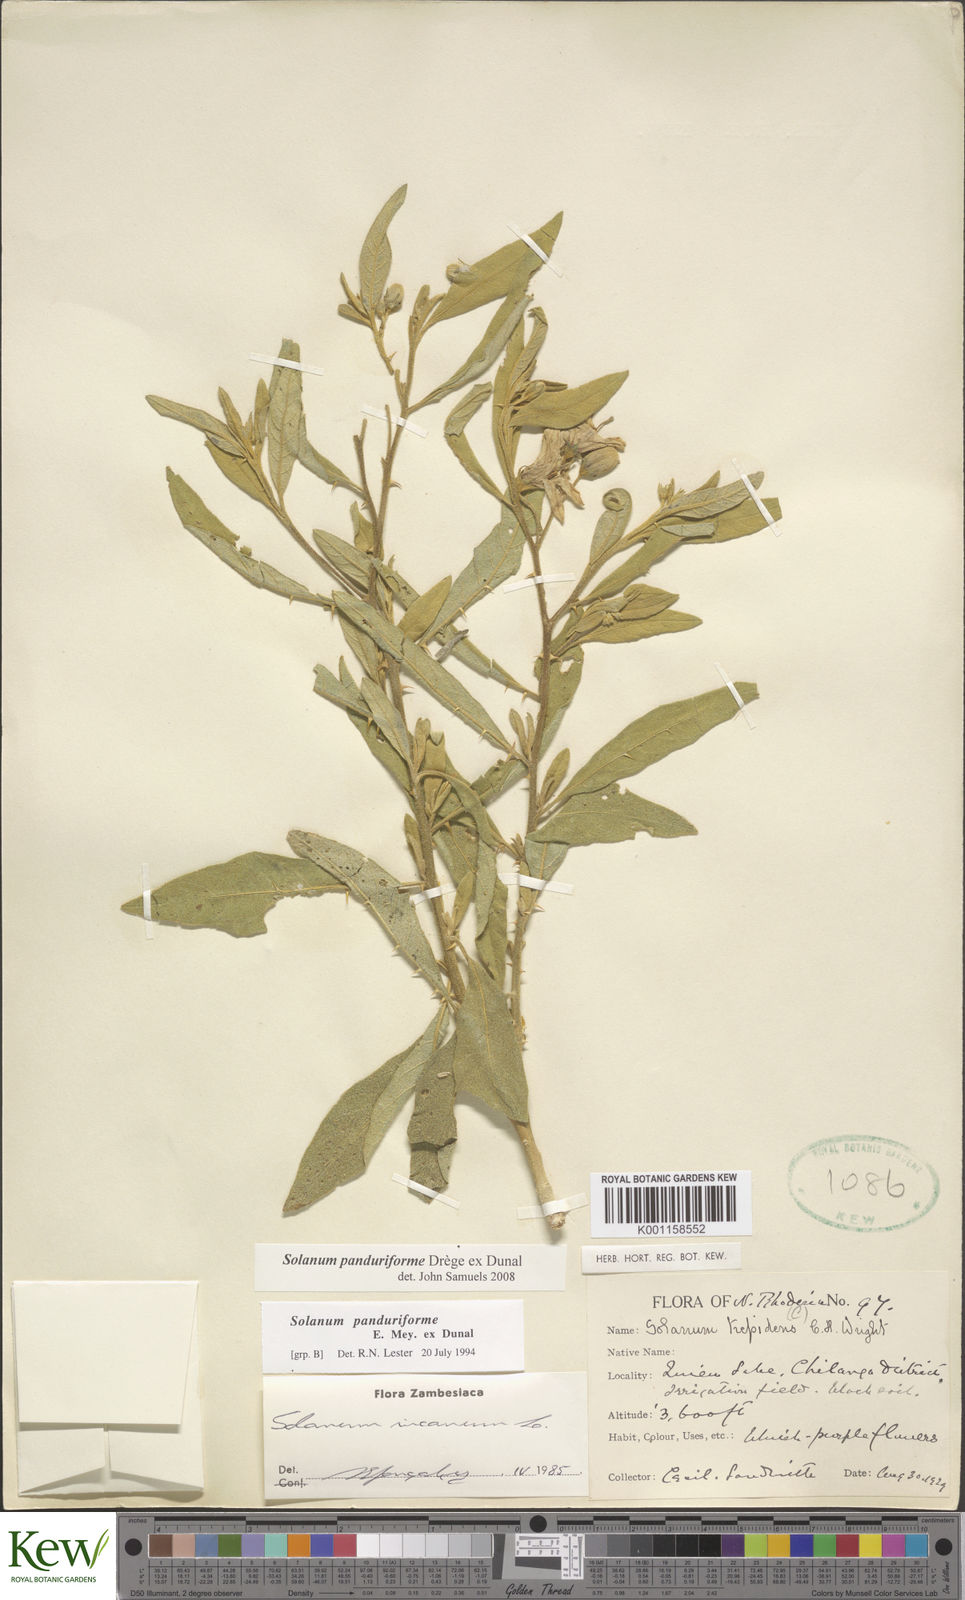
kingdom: Plantae
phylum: Tracheophyta
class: Magnoliopsida
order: Solanales
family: Solanaceae
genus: Solanum
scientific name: Solanum campylacanthum
